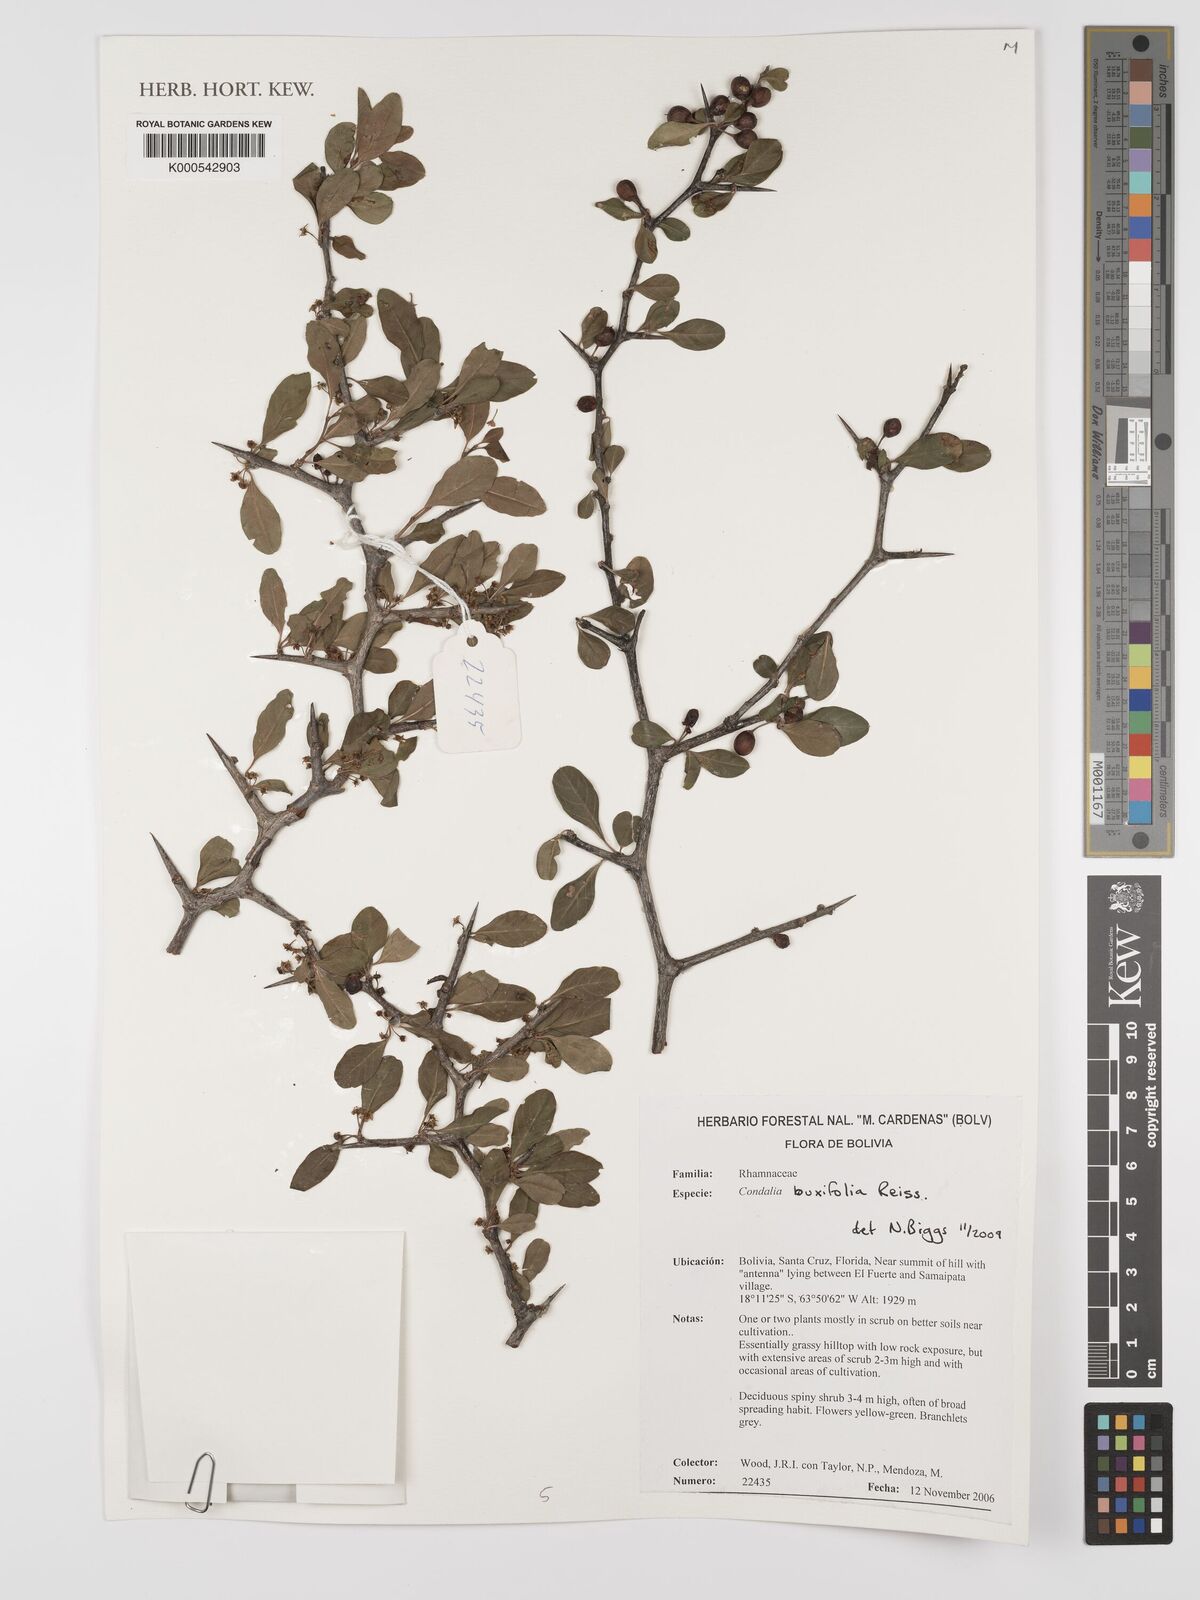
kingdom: Plantae
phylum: Tracheophyta
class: Magnoliopsida
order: Rosales
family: Rhamnaceae
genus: Condalia
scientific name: Condalia buxifolia
